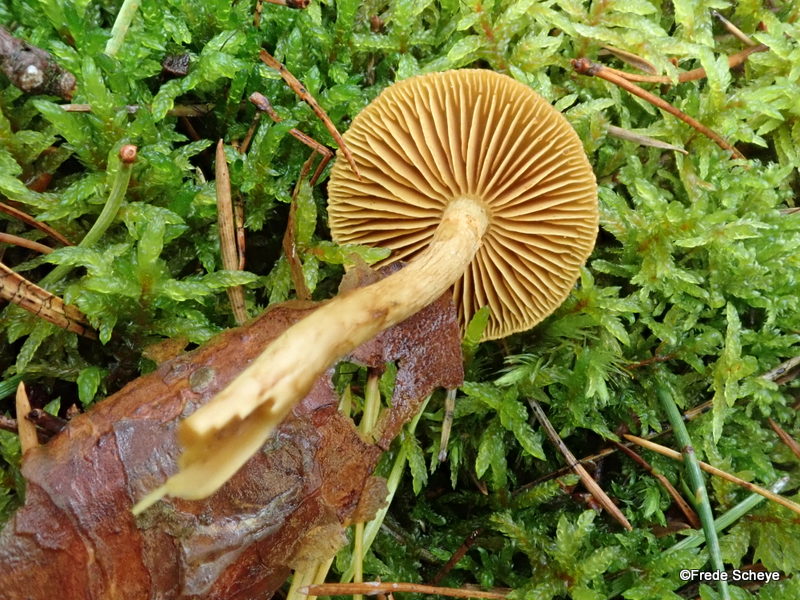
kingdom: Fungi
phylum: Basidiomycota
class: Agaricomycetes
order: Agaricales
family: Cortinariaceae
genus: Cortinarius
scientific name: Cortinarius
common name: gulbladet slørhat
